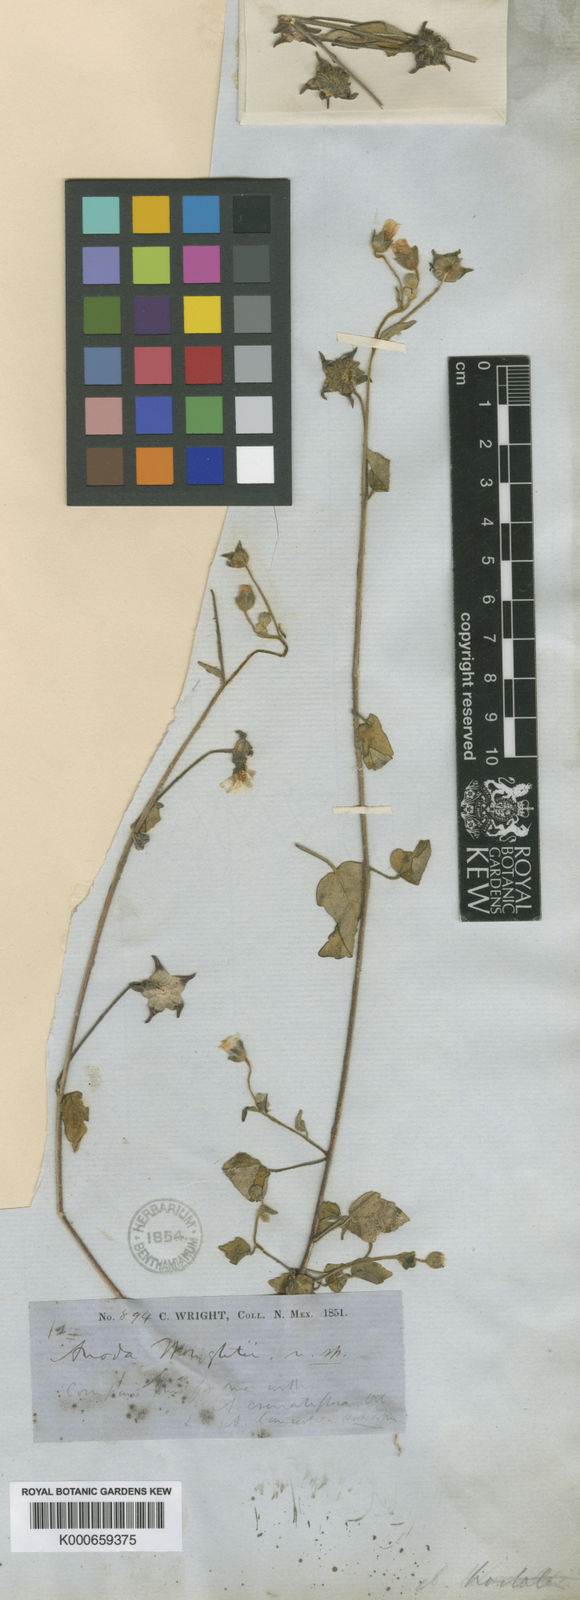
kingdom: Plantae
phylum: Tracheophyta
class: Magnoliopsida
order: Malvales
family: Malvaceae
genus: Anoda
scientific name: Anoda lanceolata
